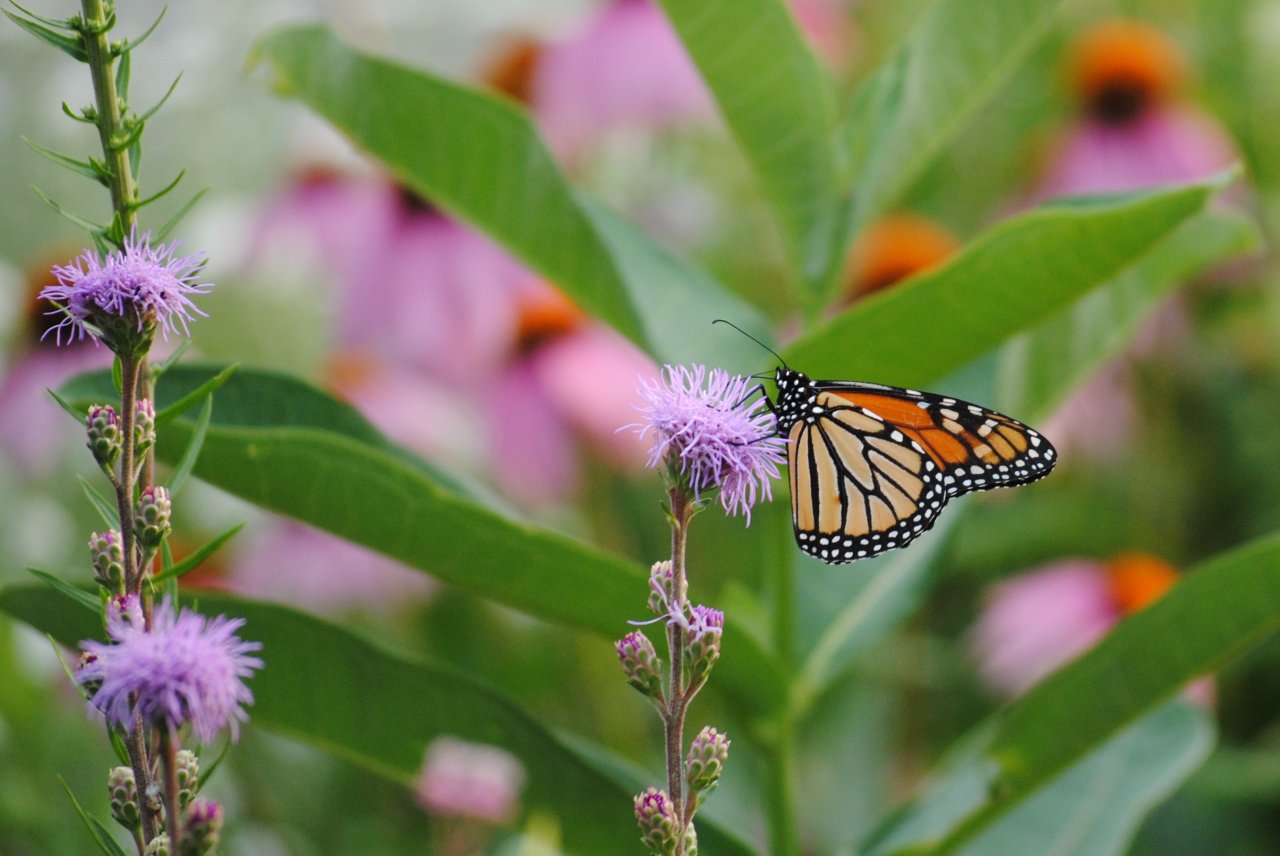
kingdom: Animalia
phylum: Arthropoda
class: Insecta
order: Lepidoptera
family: Nymphalidae
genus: Danaus
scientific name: Danaus plexippus
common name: Monarch
